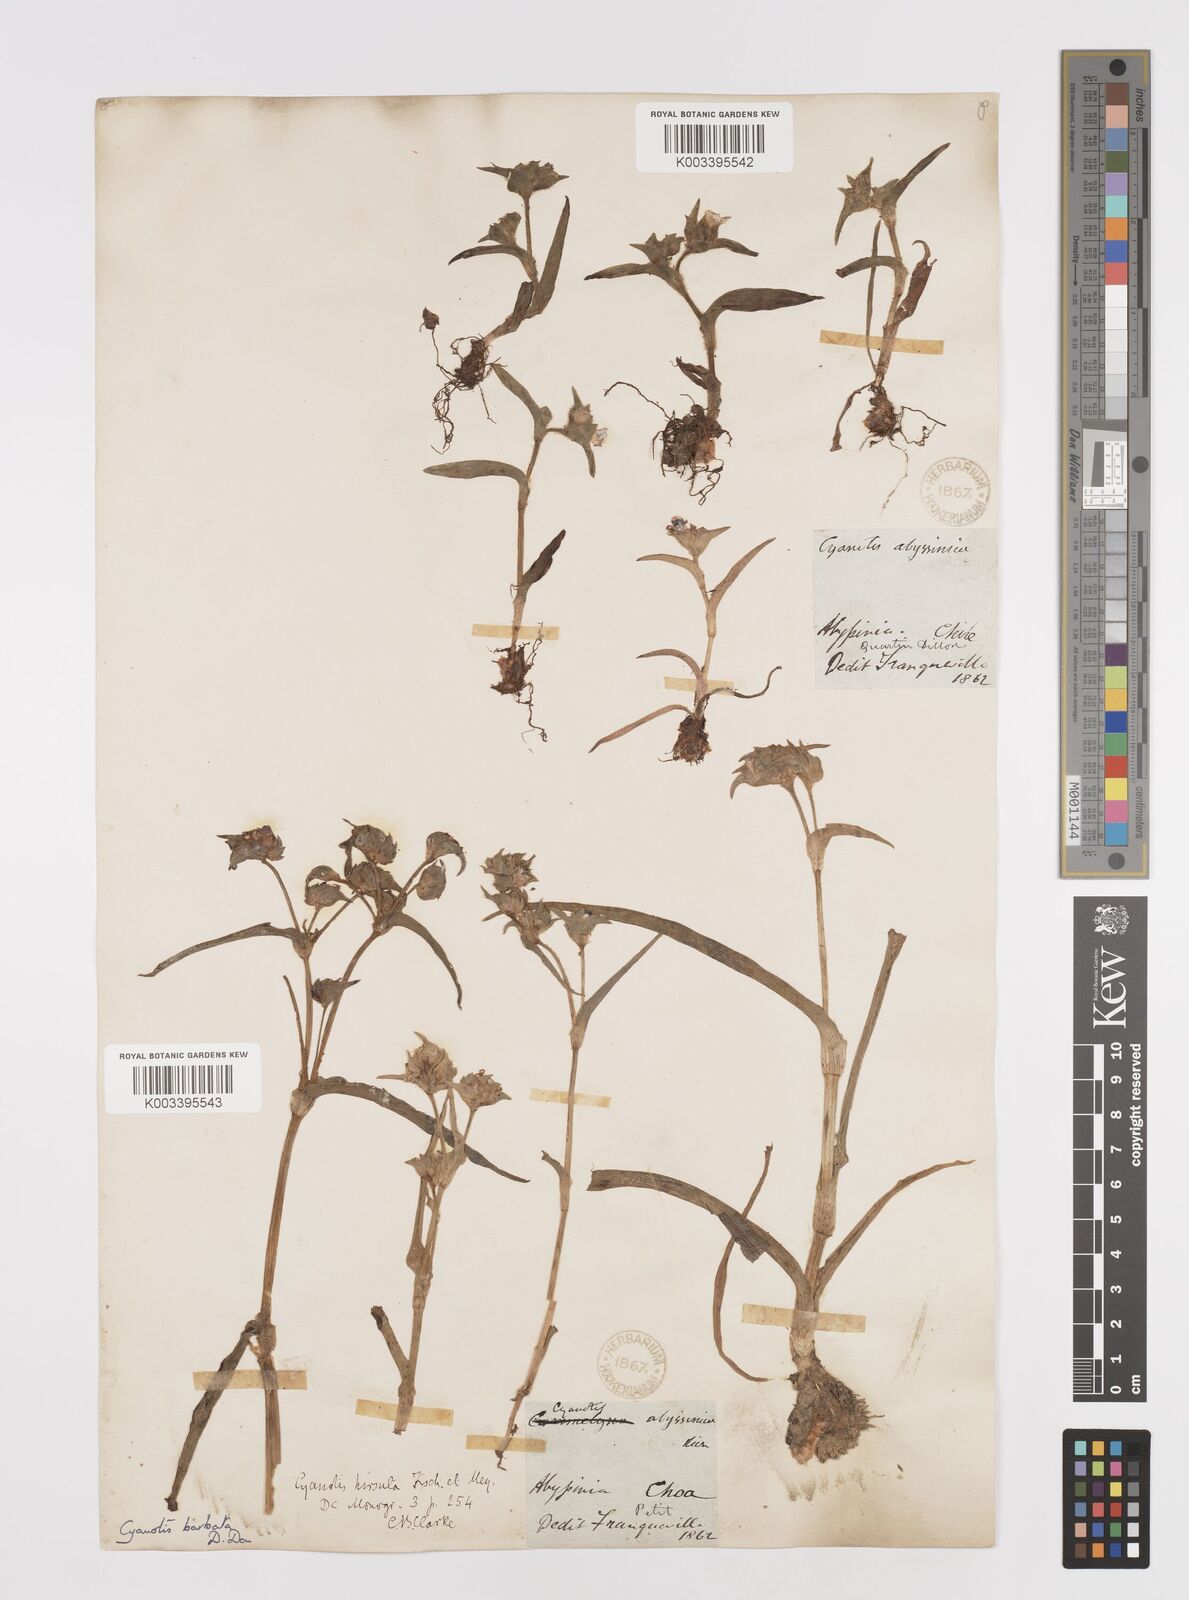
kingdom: Plantae
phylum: Tracheophyta
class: Liliopsida
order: Commelinales
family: Commelinaceae
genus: Cyanotis
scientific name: Cyanotis vaga
